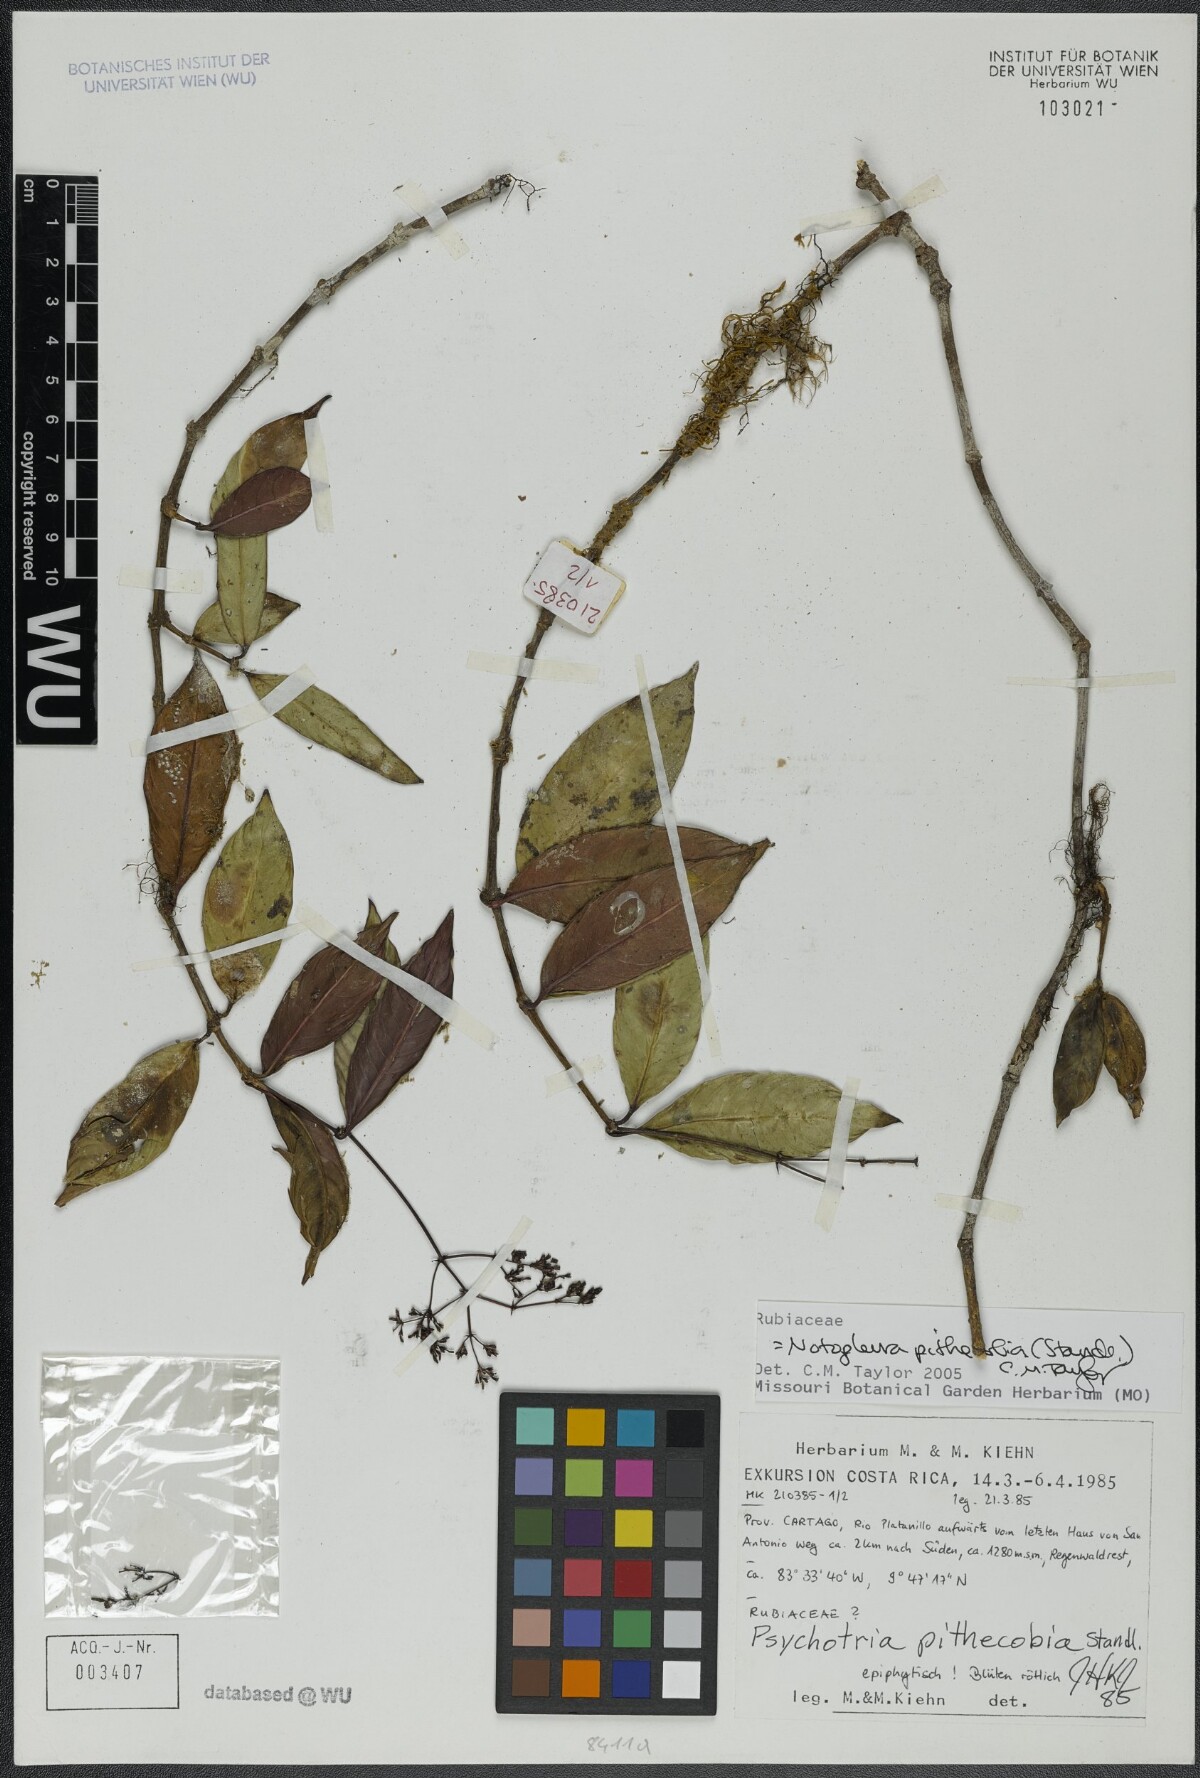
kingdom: Plantae
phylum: Tracheophyta
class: Magnoliopsida
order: Gentianales
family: Rubiaceae
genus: Notopleura
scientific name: Notopleura pithecobia
